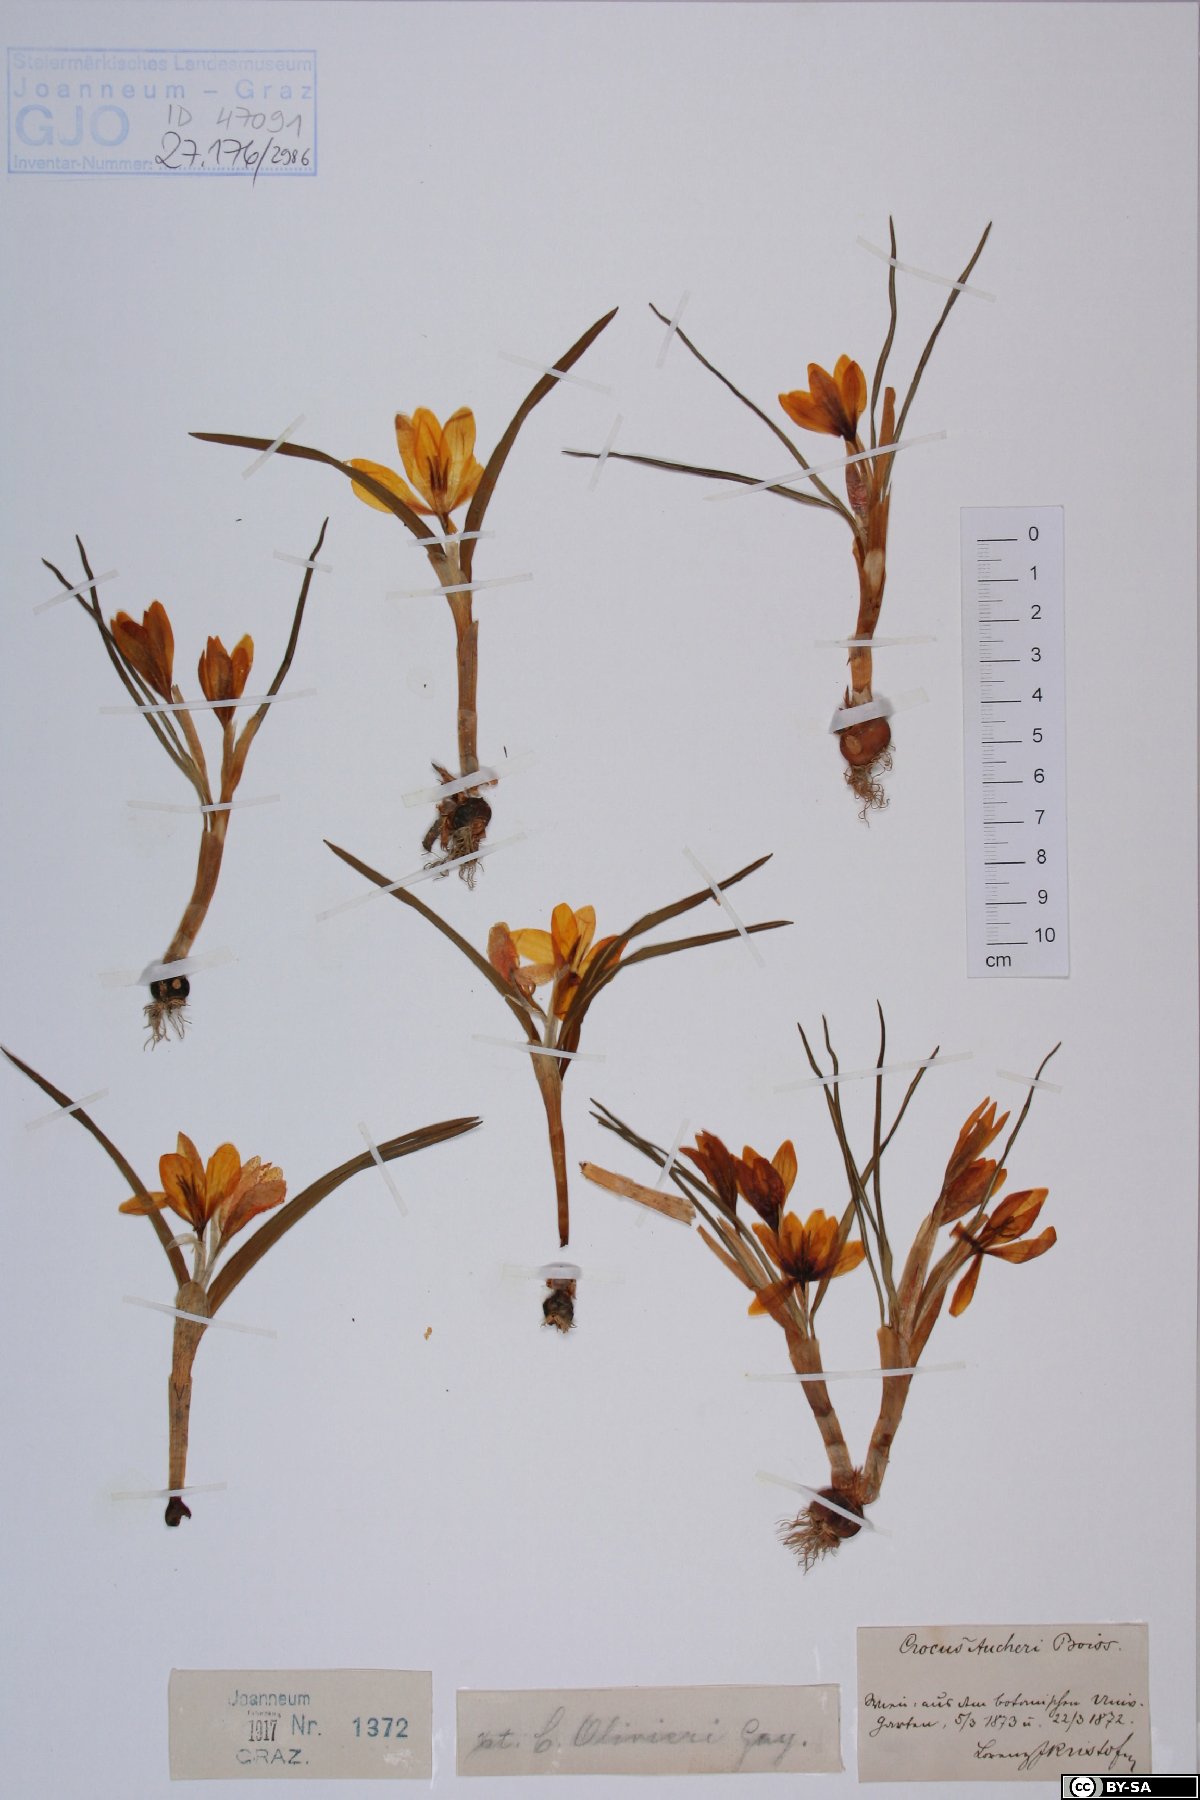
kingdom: Plantae
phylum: Tracheophyta
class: Liliopsida
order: Asparagales
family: Iridaceae
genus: Crocus
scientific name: Crocus olivieri
